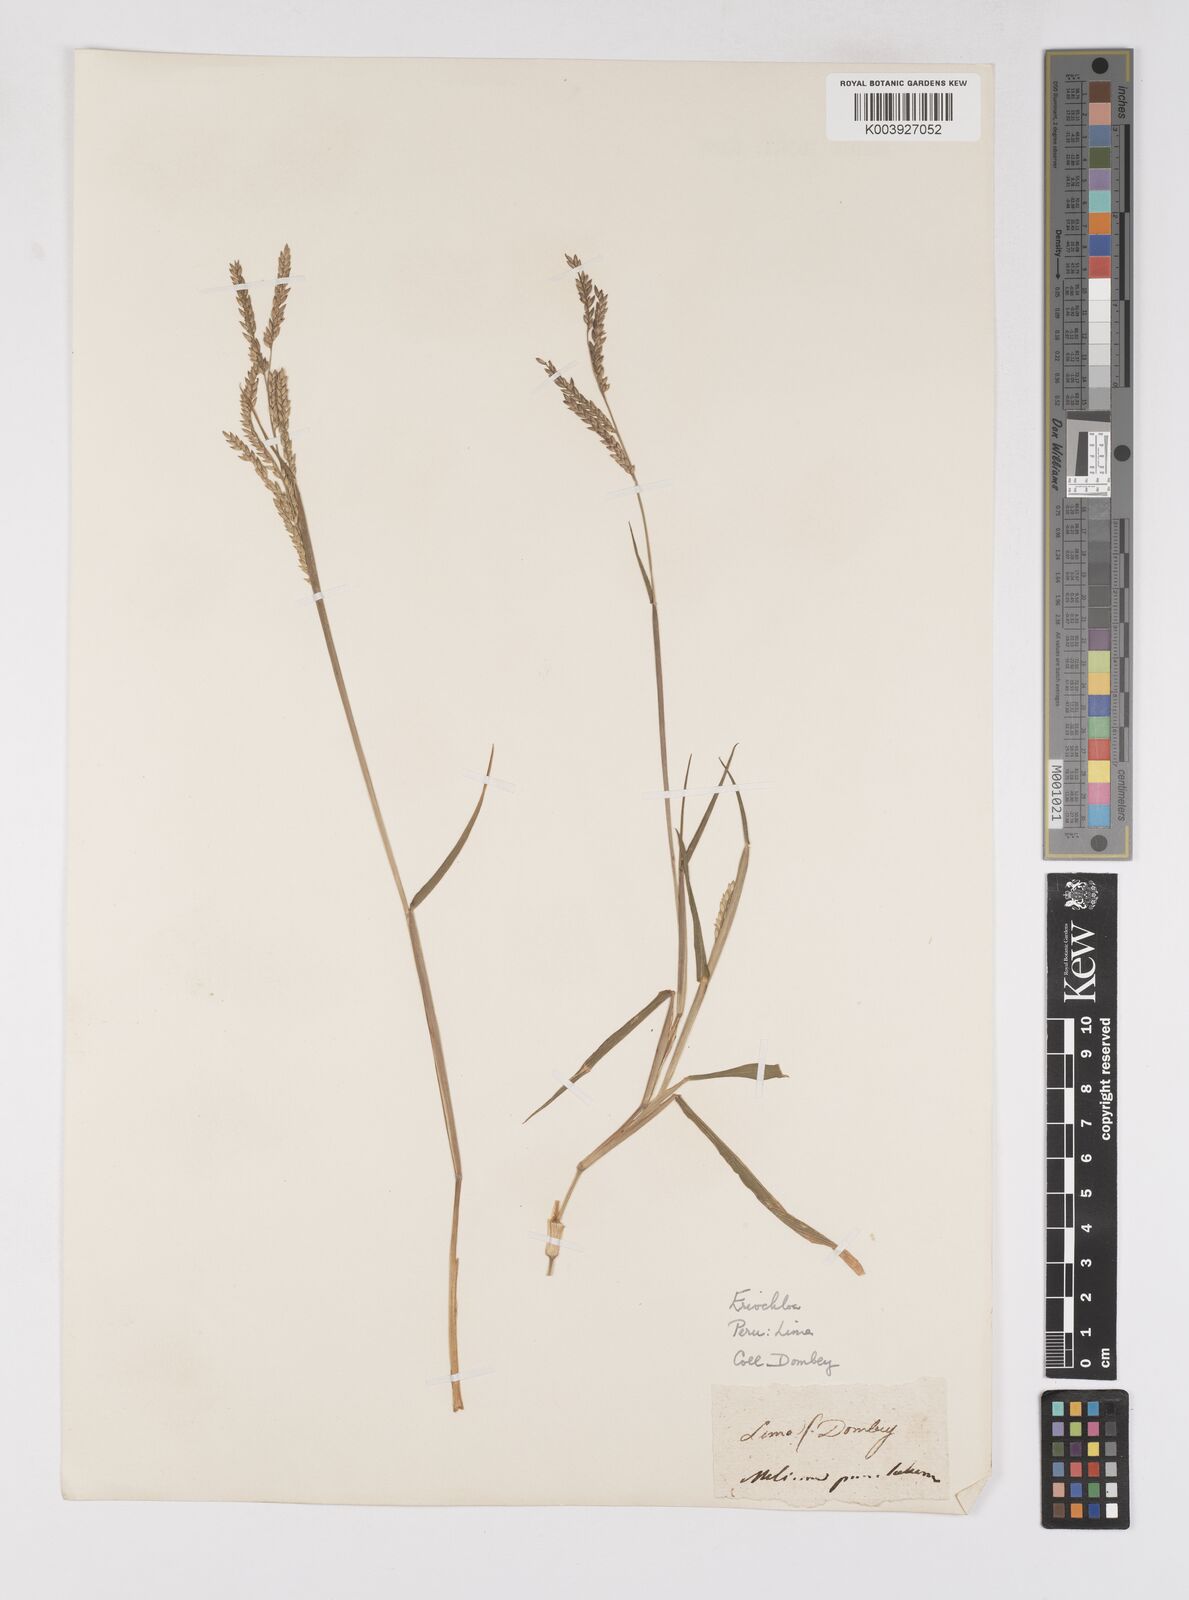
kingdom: Plantae
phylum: Tracheophyta
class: Liliopsida
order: Poales
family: Poaceae
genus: Eriochloa
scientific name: Eriochloa punctata
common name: Louisiana cupgrass
